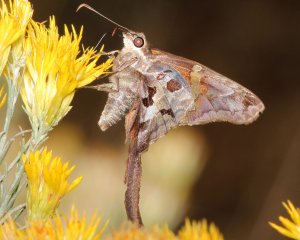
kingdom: Animalia
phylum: Arthropoda
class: Insecta
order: Lepidoptera
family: Hesperiidae
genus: Chioides
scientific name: Chioides zilpa
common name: Zilpa Longtail
